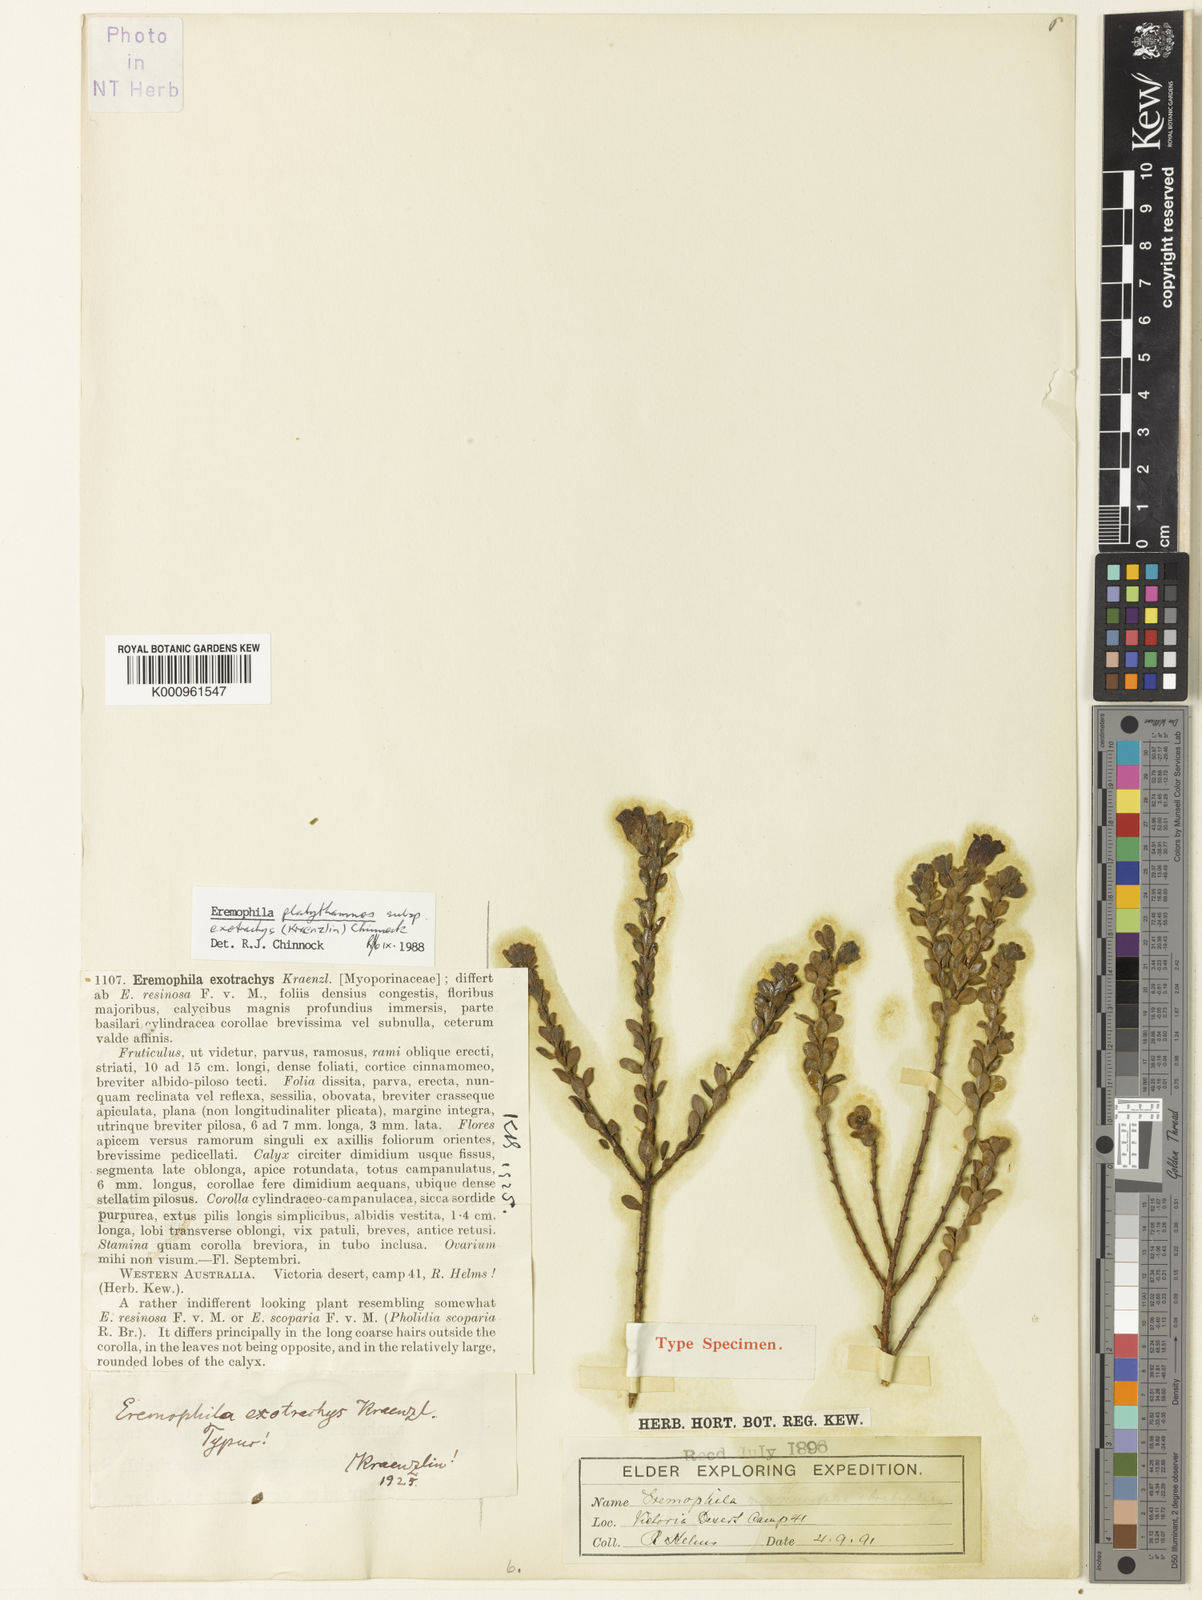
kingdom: Plantae
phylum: Tracheophyta
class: Magnoliopsida
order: Lamiales
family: Scrophulariaceae
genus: Eremophila
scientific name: Eremophila platythamnos
